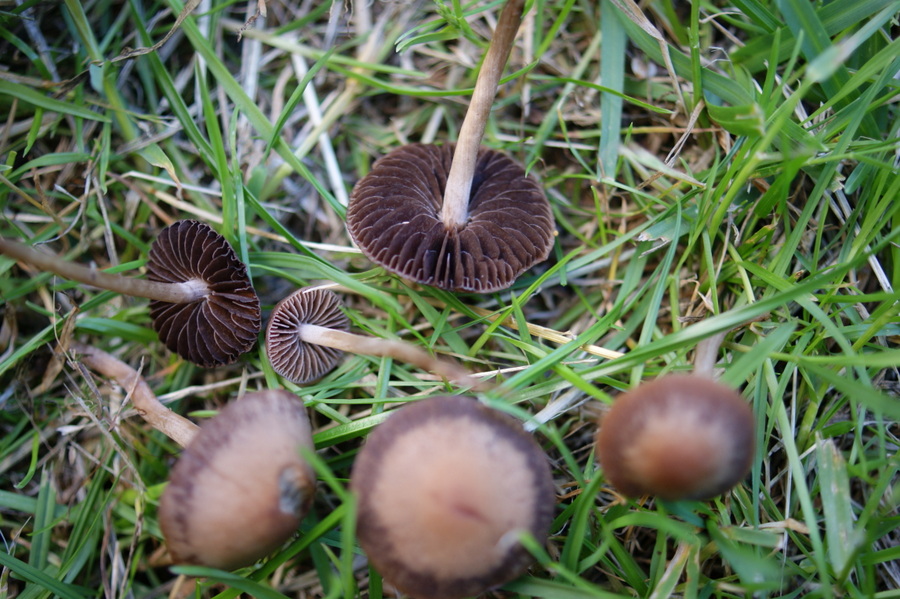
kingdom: Fungi
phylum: Basidiomycota
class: Agaricomycetes
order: Agaricales
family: Bolbitiaceae
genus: Panaeolina
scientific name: Panaeolina foenisecii
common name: høslætsvamp
